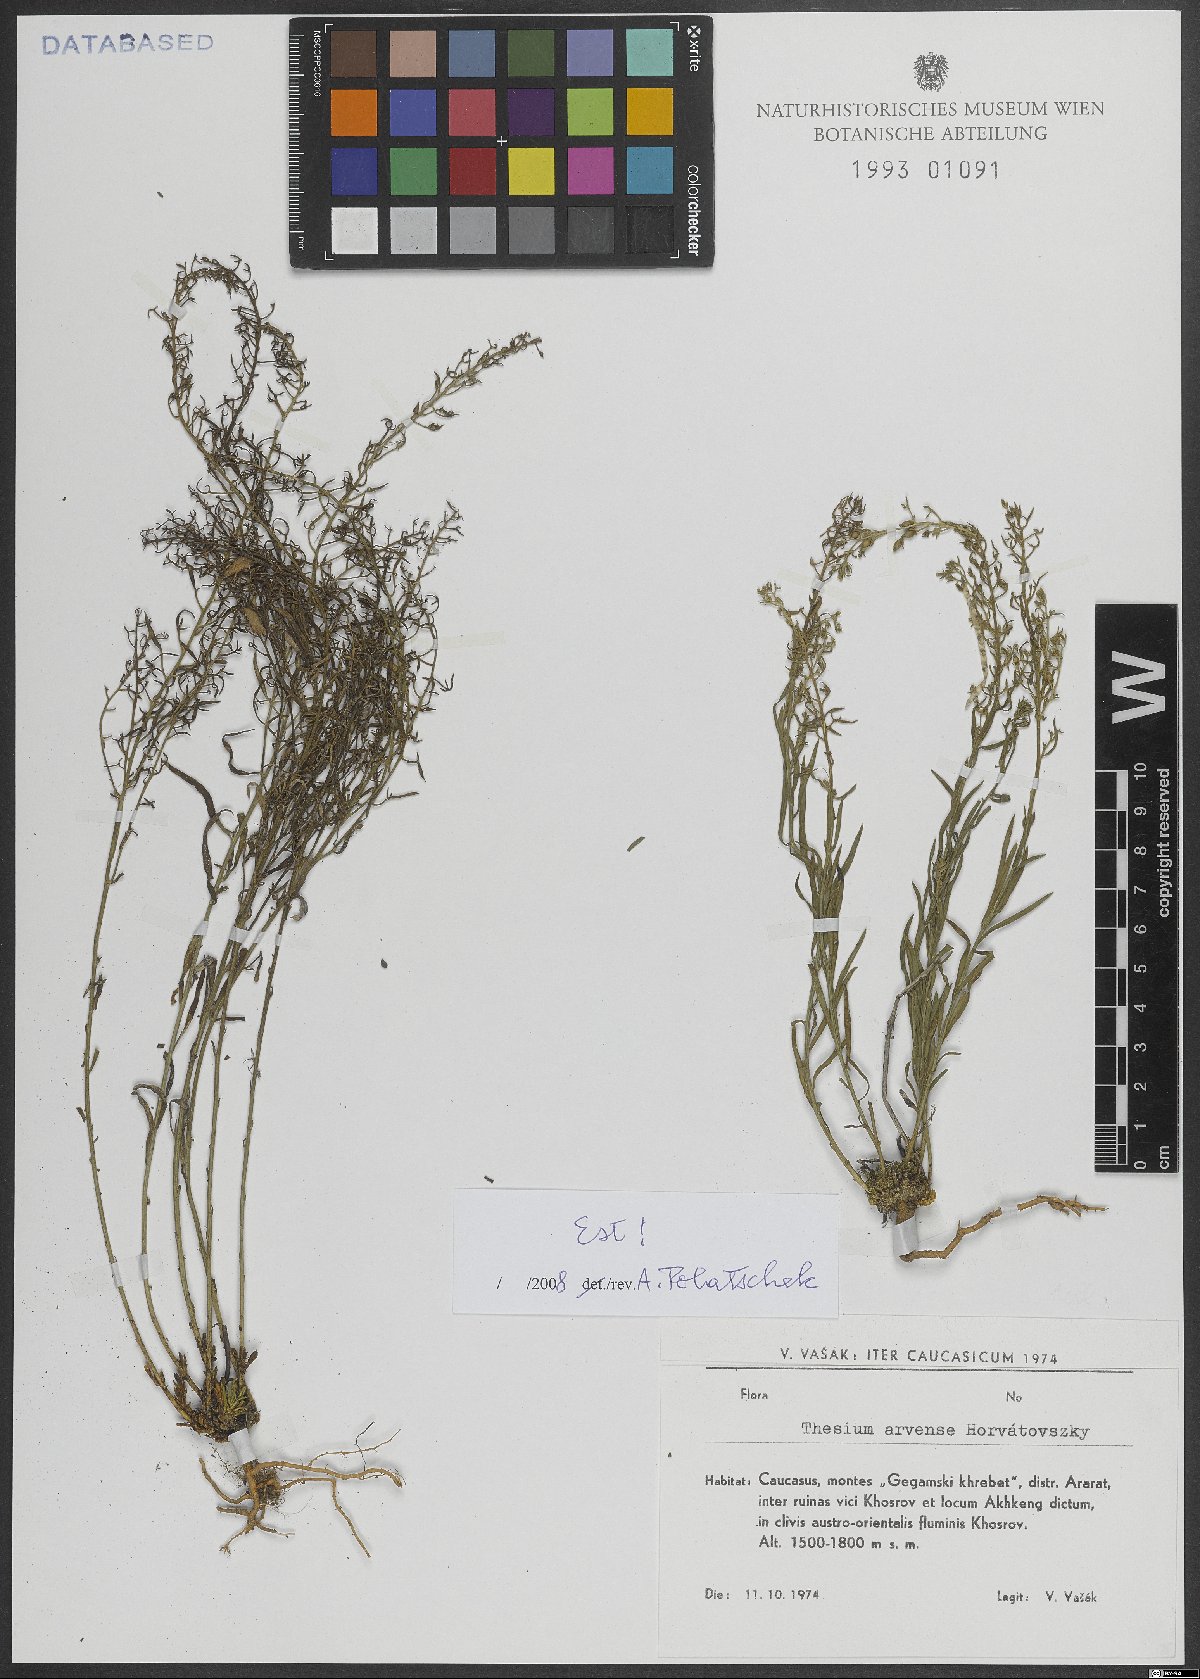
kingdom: Plantae
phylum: Tracheophyta
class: Magnoliopsida
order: Santalales
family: Thesiaceae
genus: Thesium
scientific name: Thesium
